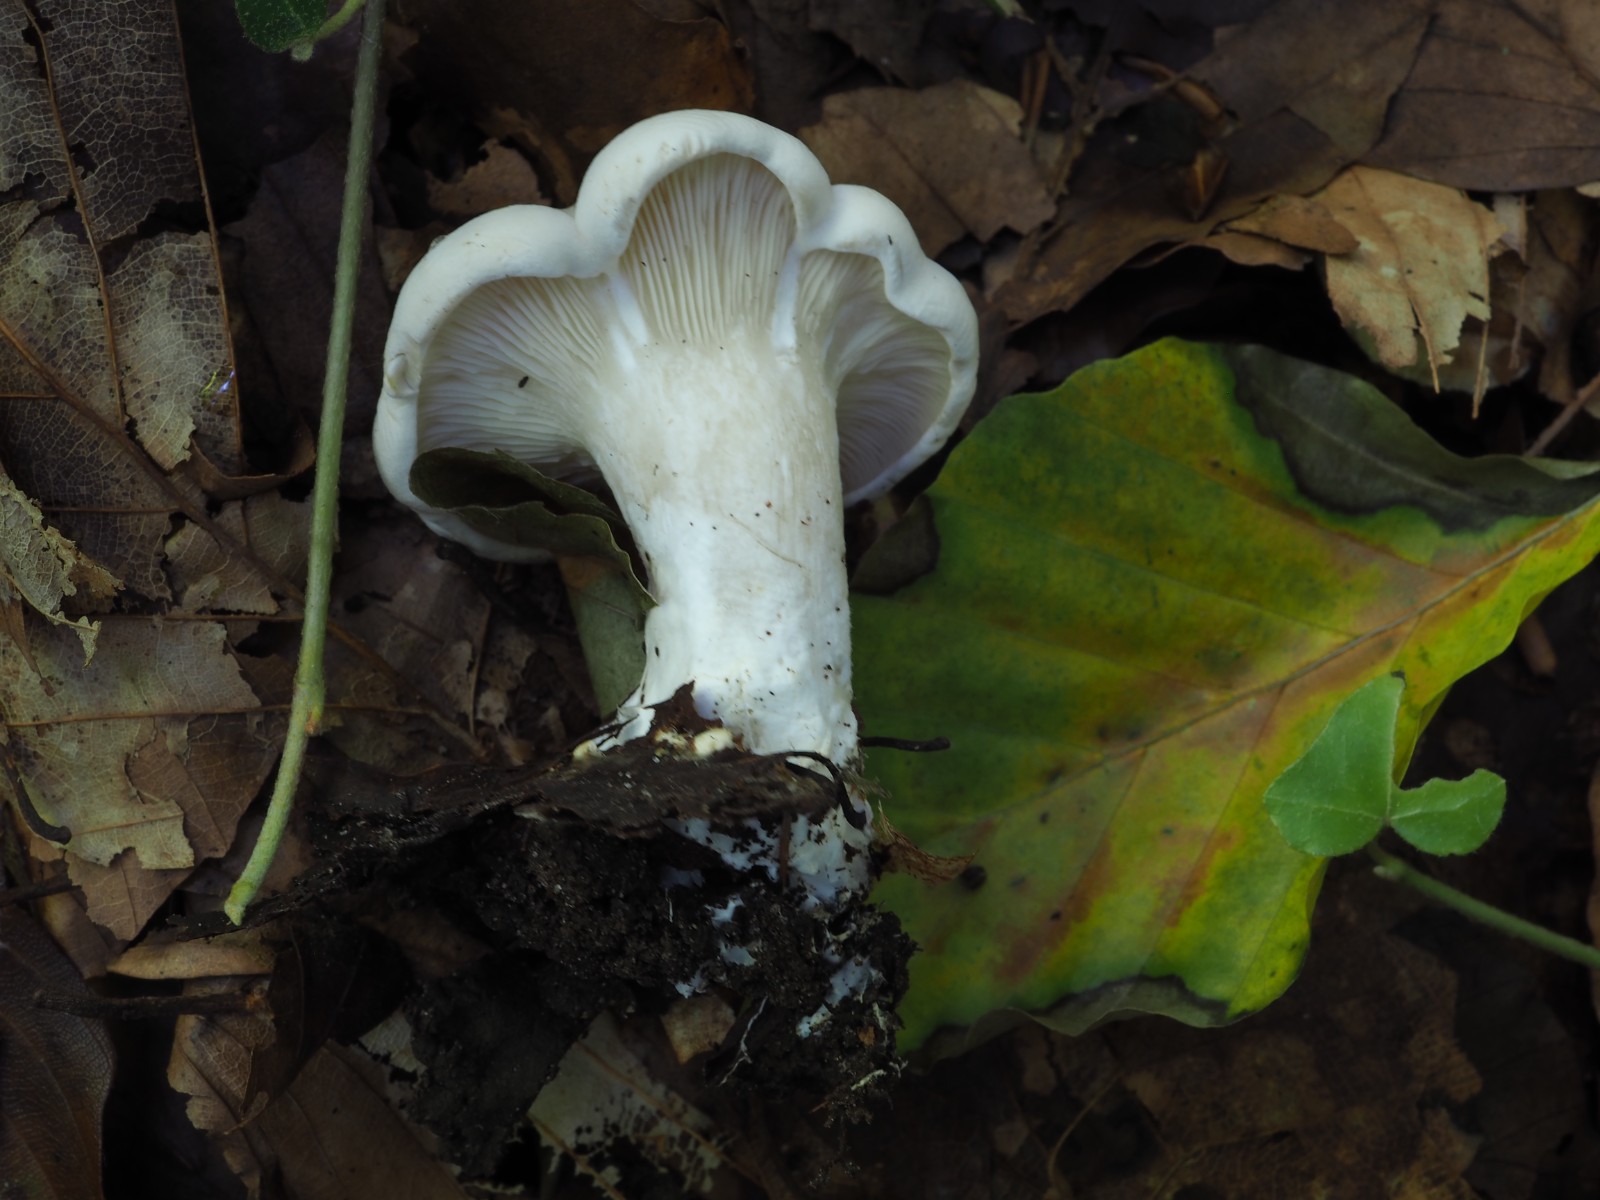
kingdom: Fungi
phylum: Basidiomycota
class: Agaricomycetes
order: Agaricales
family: Entolomataceae
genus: Clitopilus
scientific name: Clitopilus prunulus
